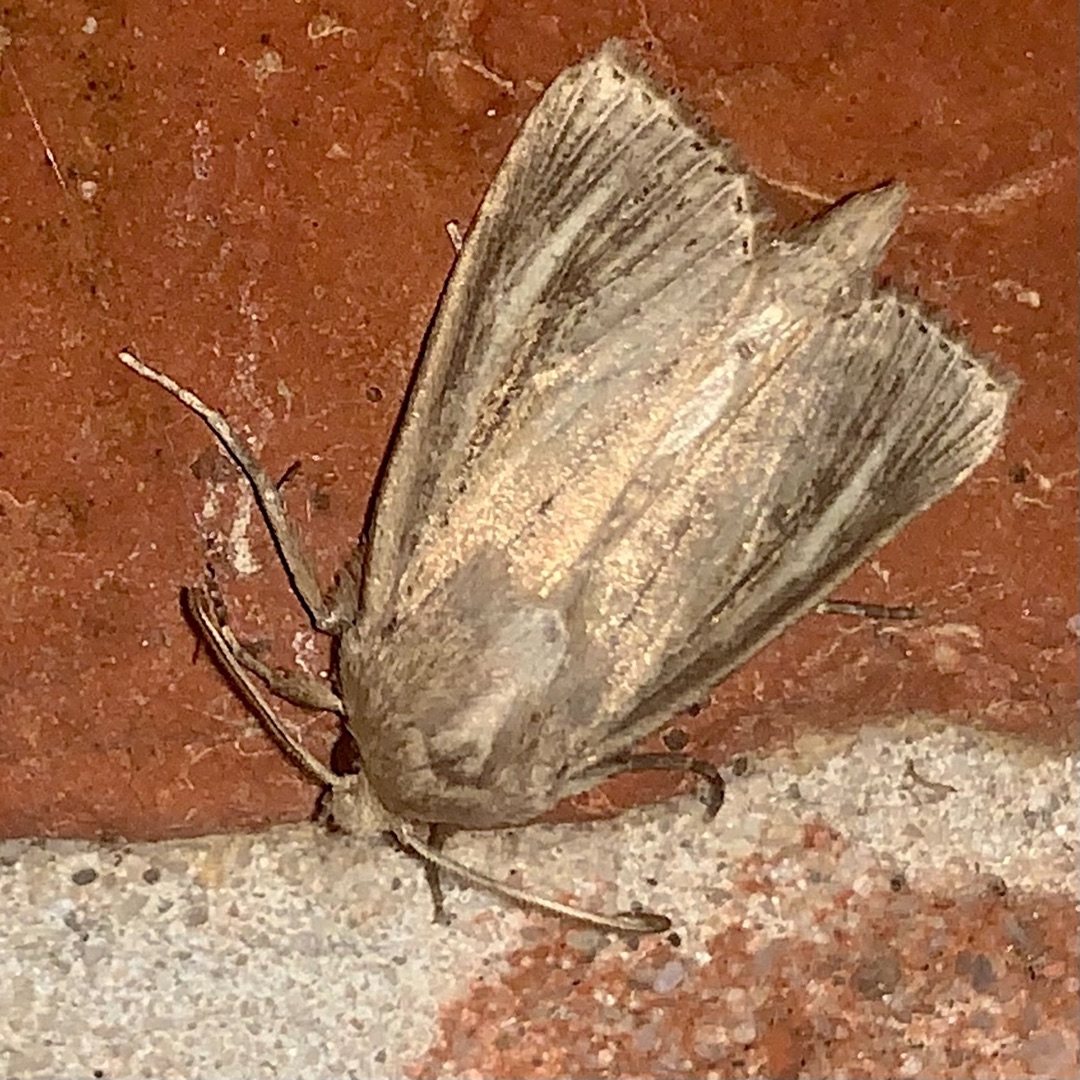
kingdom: Animalia
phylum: Arthropoda
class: Insecta
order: Lepidoptera
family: Noctuidae
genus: Nonagria
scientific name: Nonagria typhae
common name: Stor rørugle
